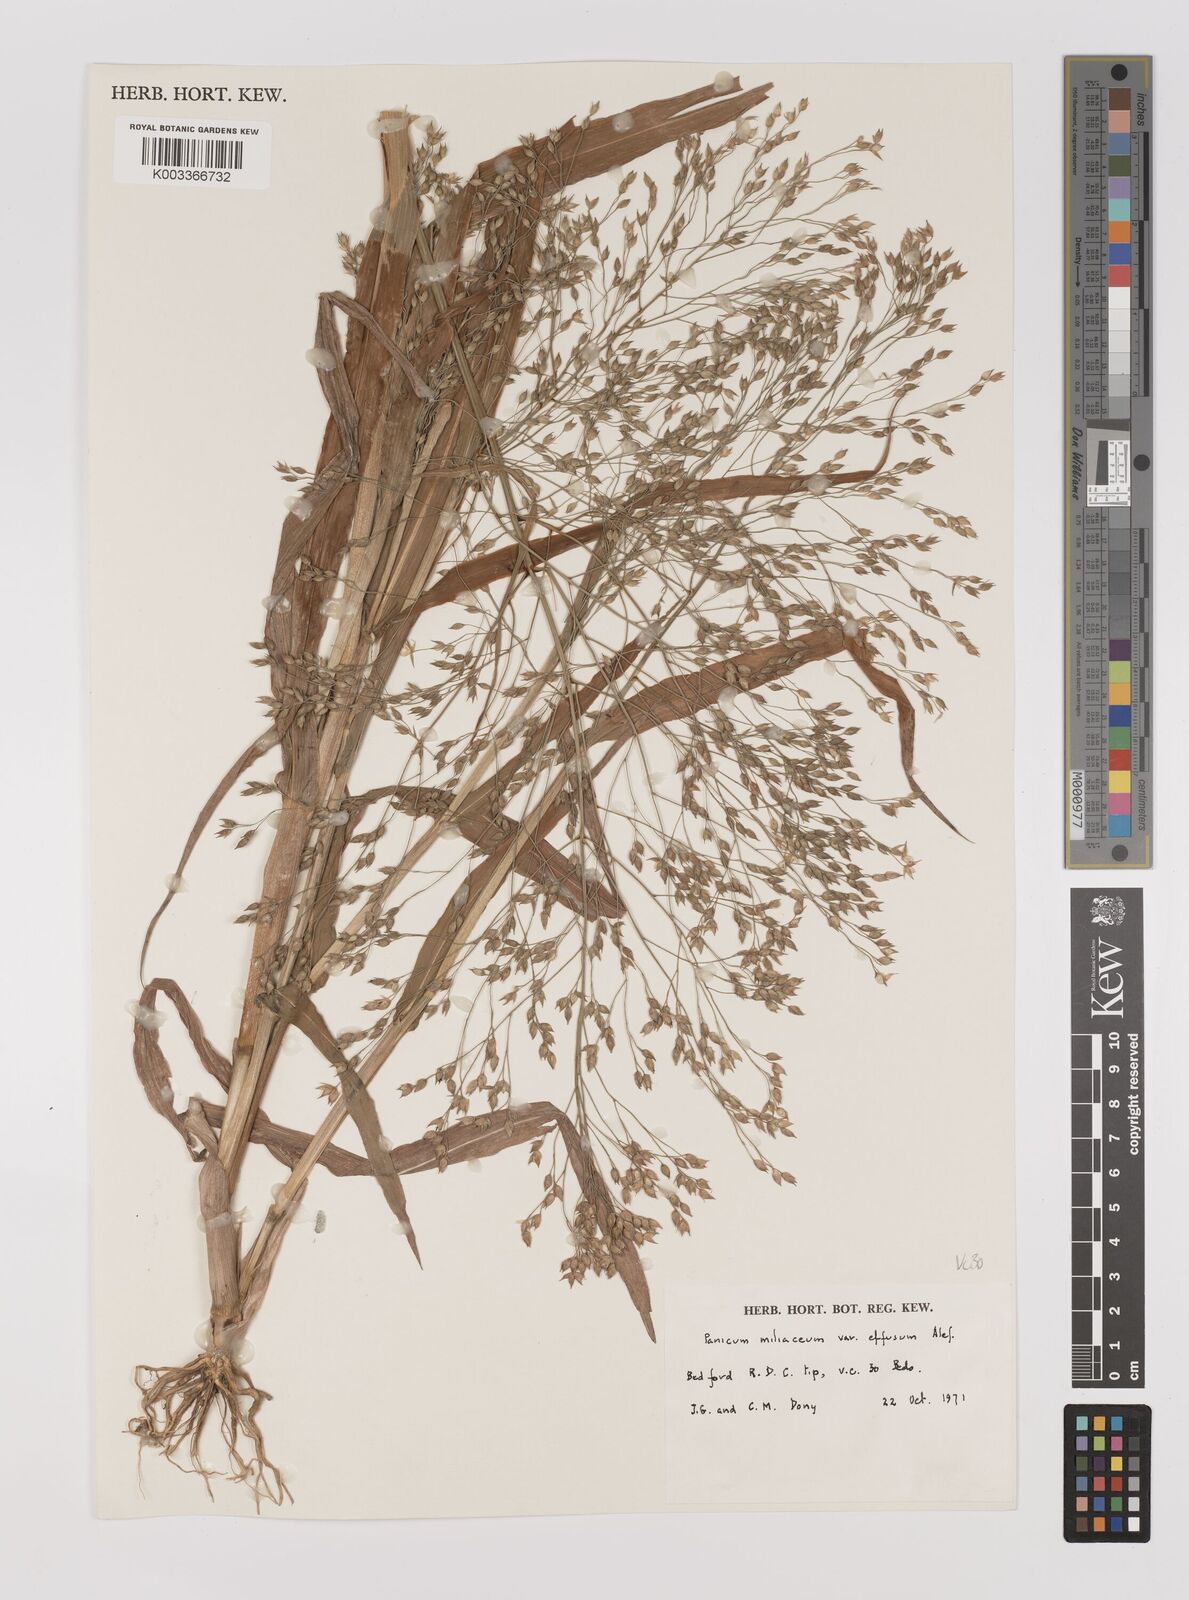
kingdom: Plantae
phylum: Tracheophyta
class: Liliopsida
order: Poales
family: Poaceae
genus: Panicum
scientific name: Panicum miliaceum
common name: Common millet
